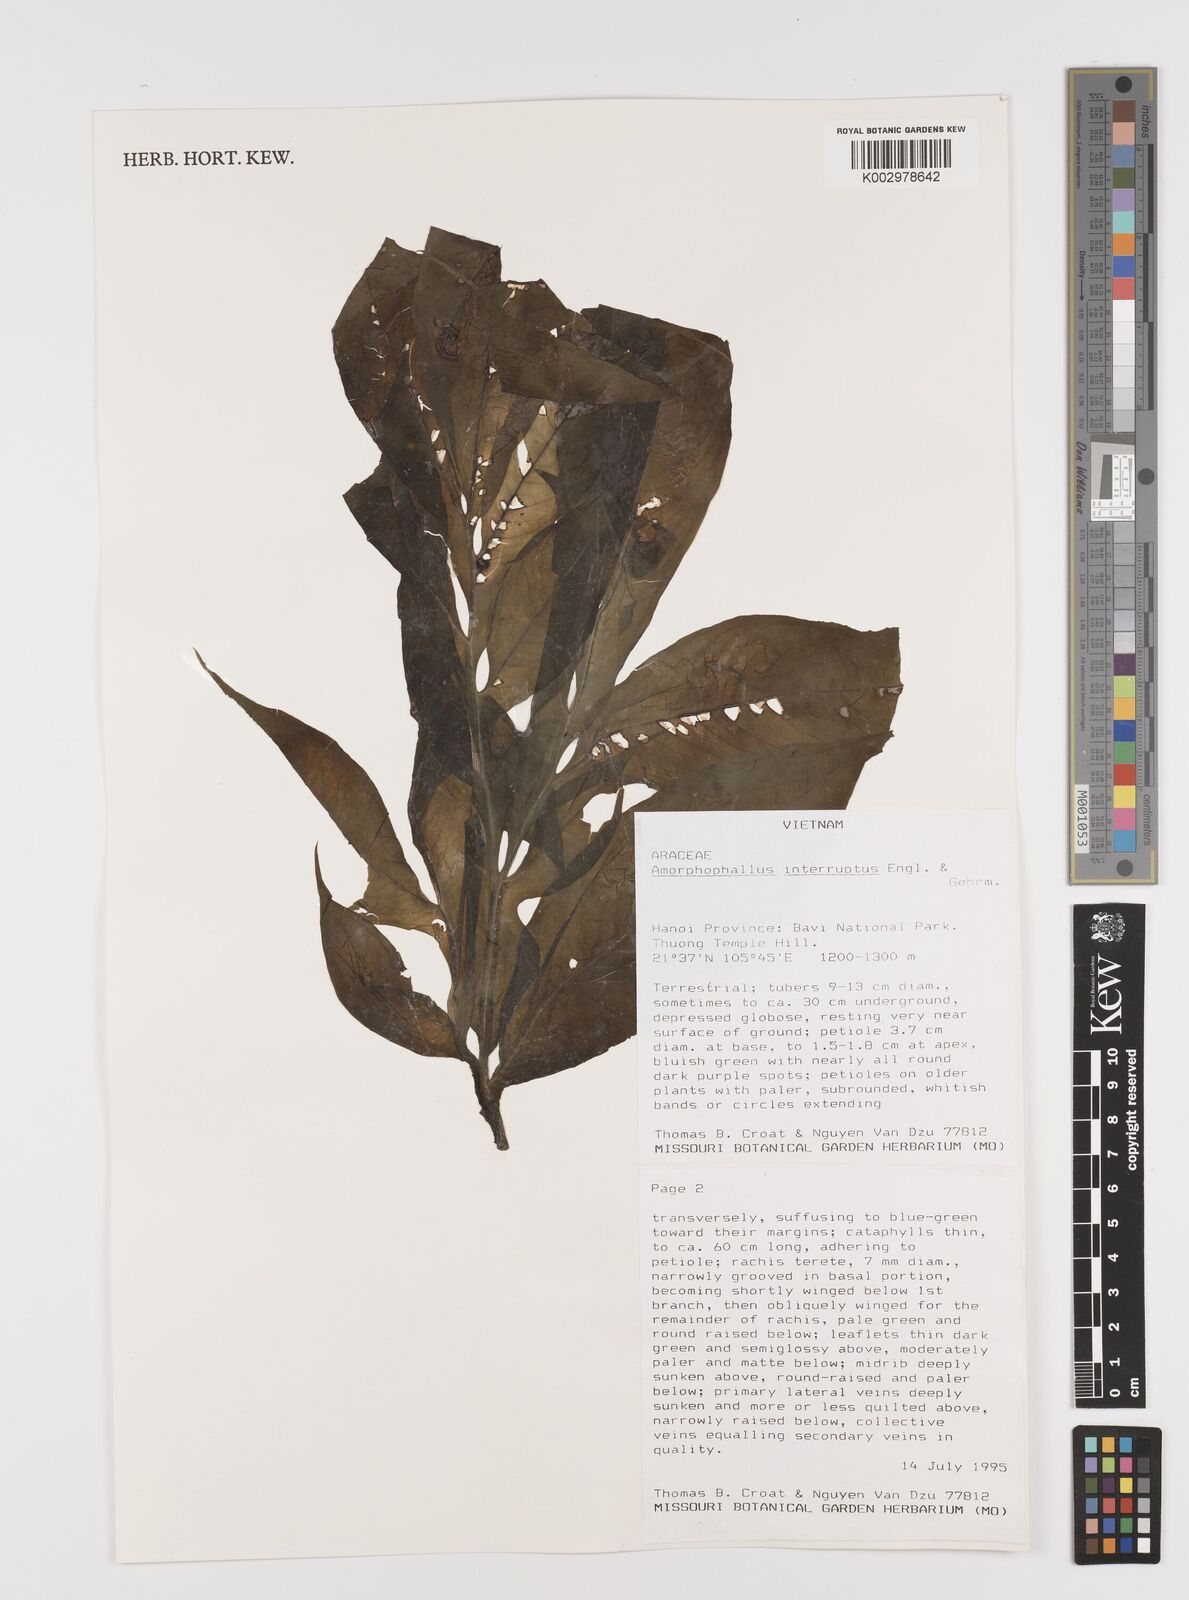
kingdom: Plantae
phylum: Tracheophyta
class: Liliopsida
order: Alismatales
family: Araceae
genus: Amorphophallus
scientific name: Amorphophallus interruptus
